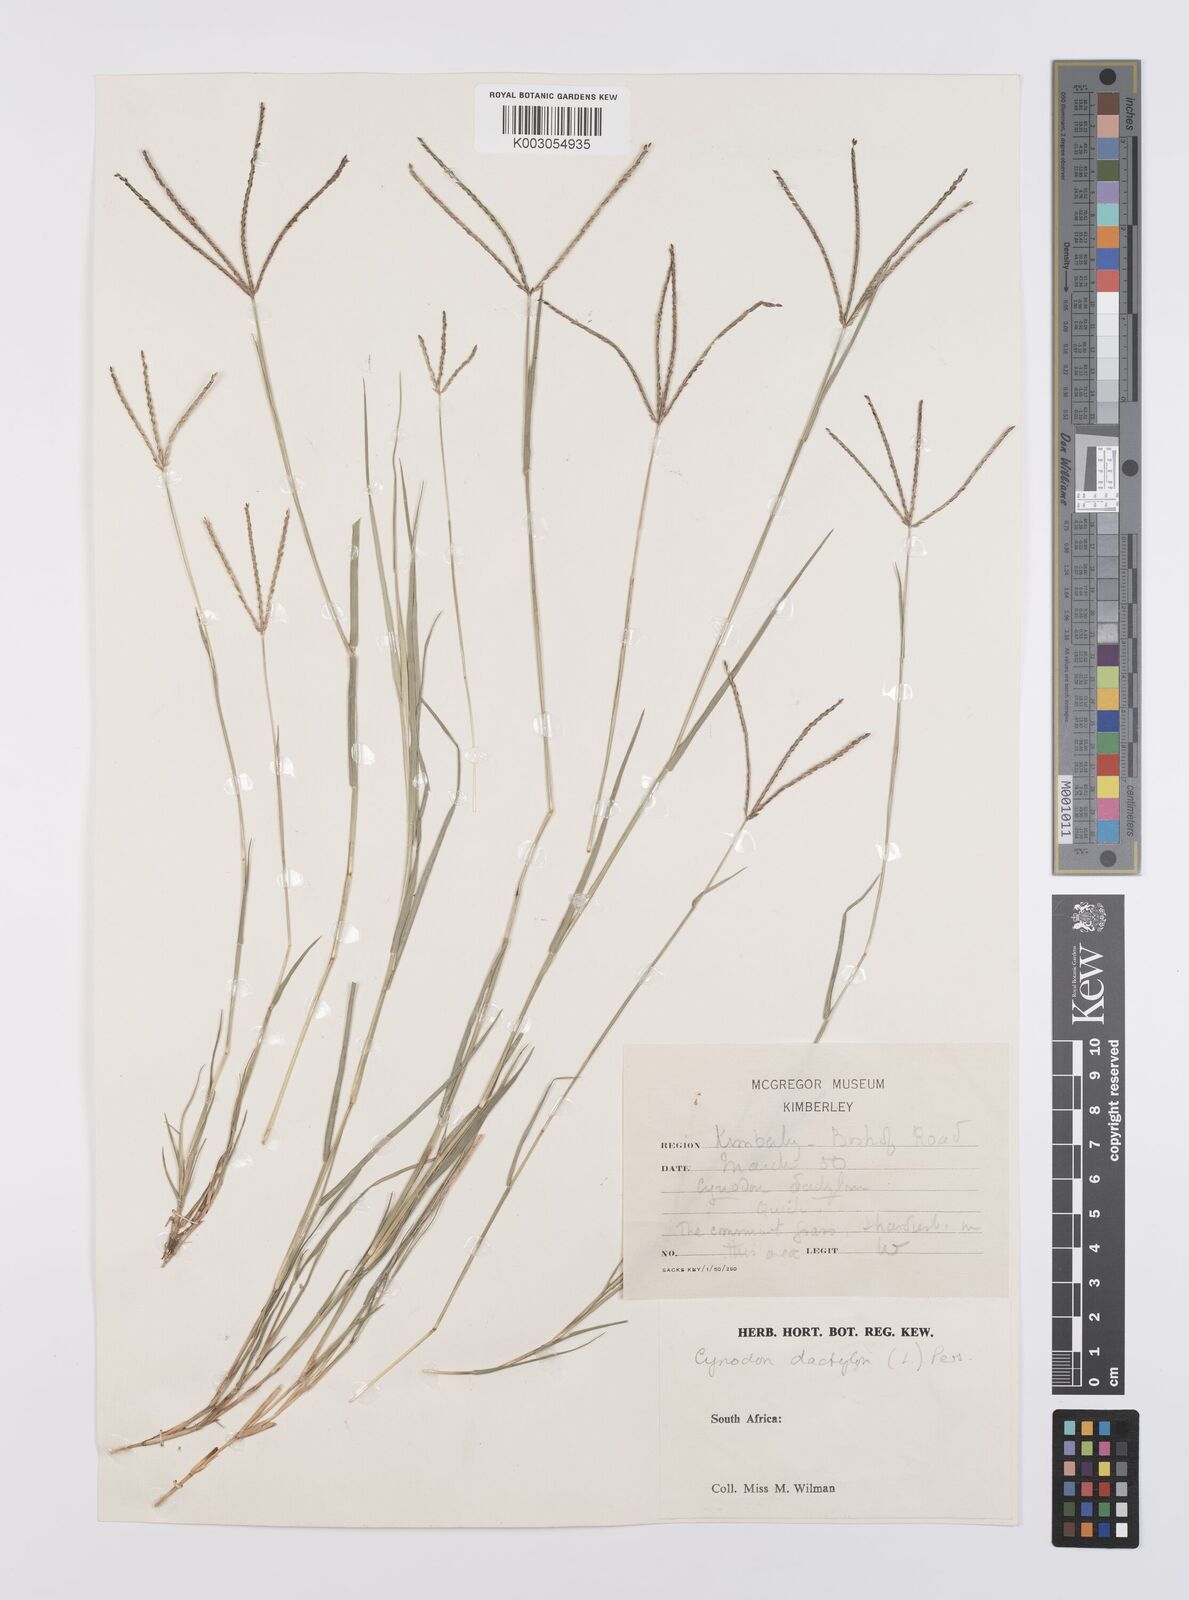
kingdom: Plantae
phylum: Tracheophyta
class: Liliopsida
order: Poales
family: Poaceae
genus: Cynodon
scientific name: Cynodon dactylon
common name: Bermuda grass
